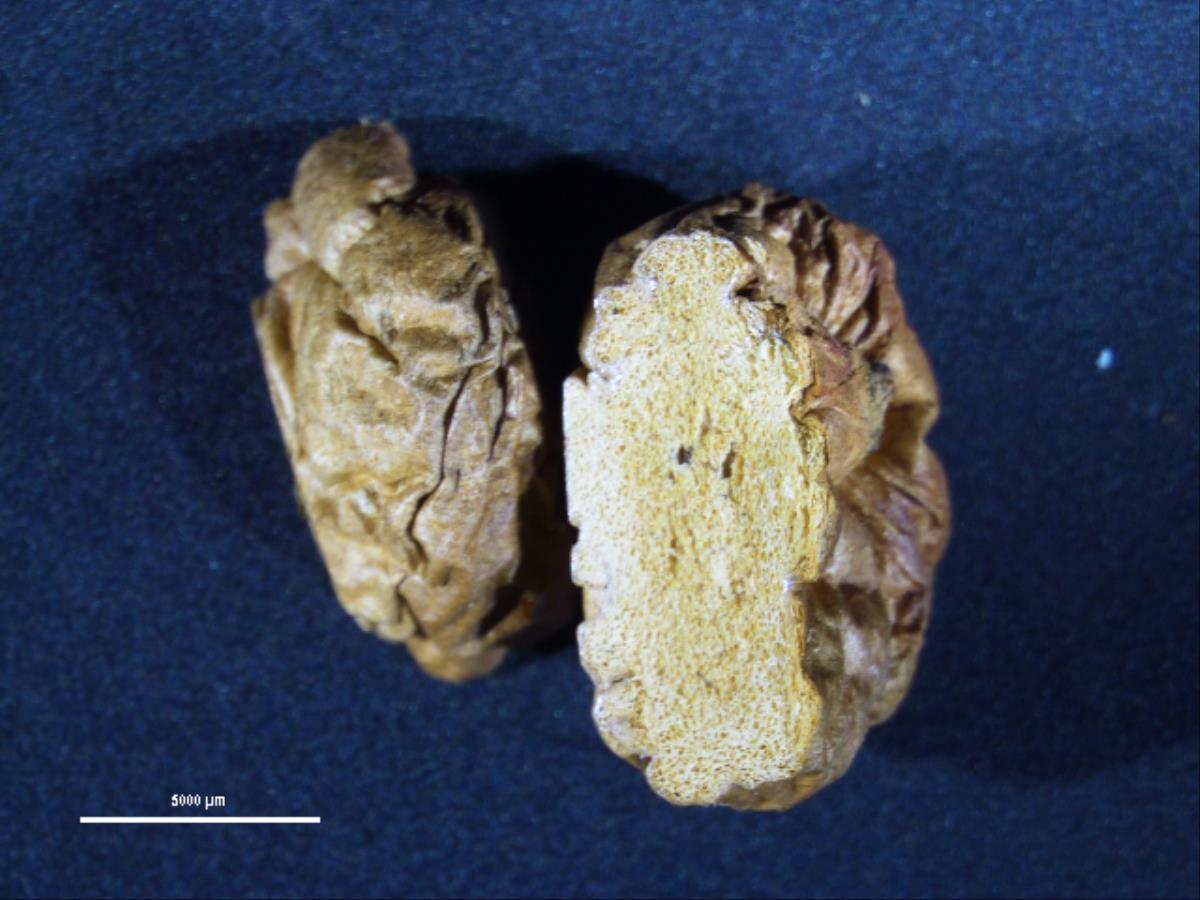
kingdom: Fungi
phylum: Basidiomycota
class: Agaricomycetes
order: Gomphales
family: Gomphaceae
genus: Gautieria
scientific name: Gautieria
